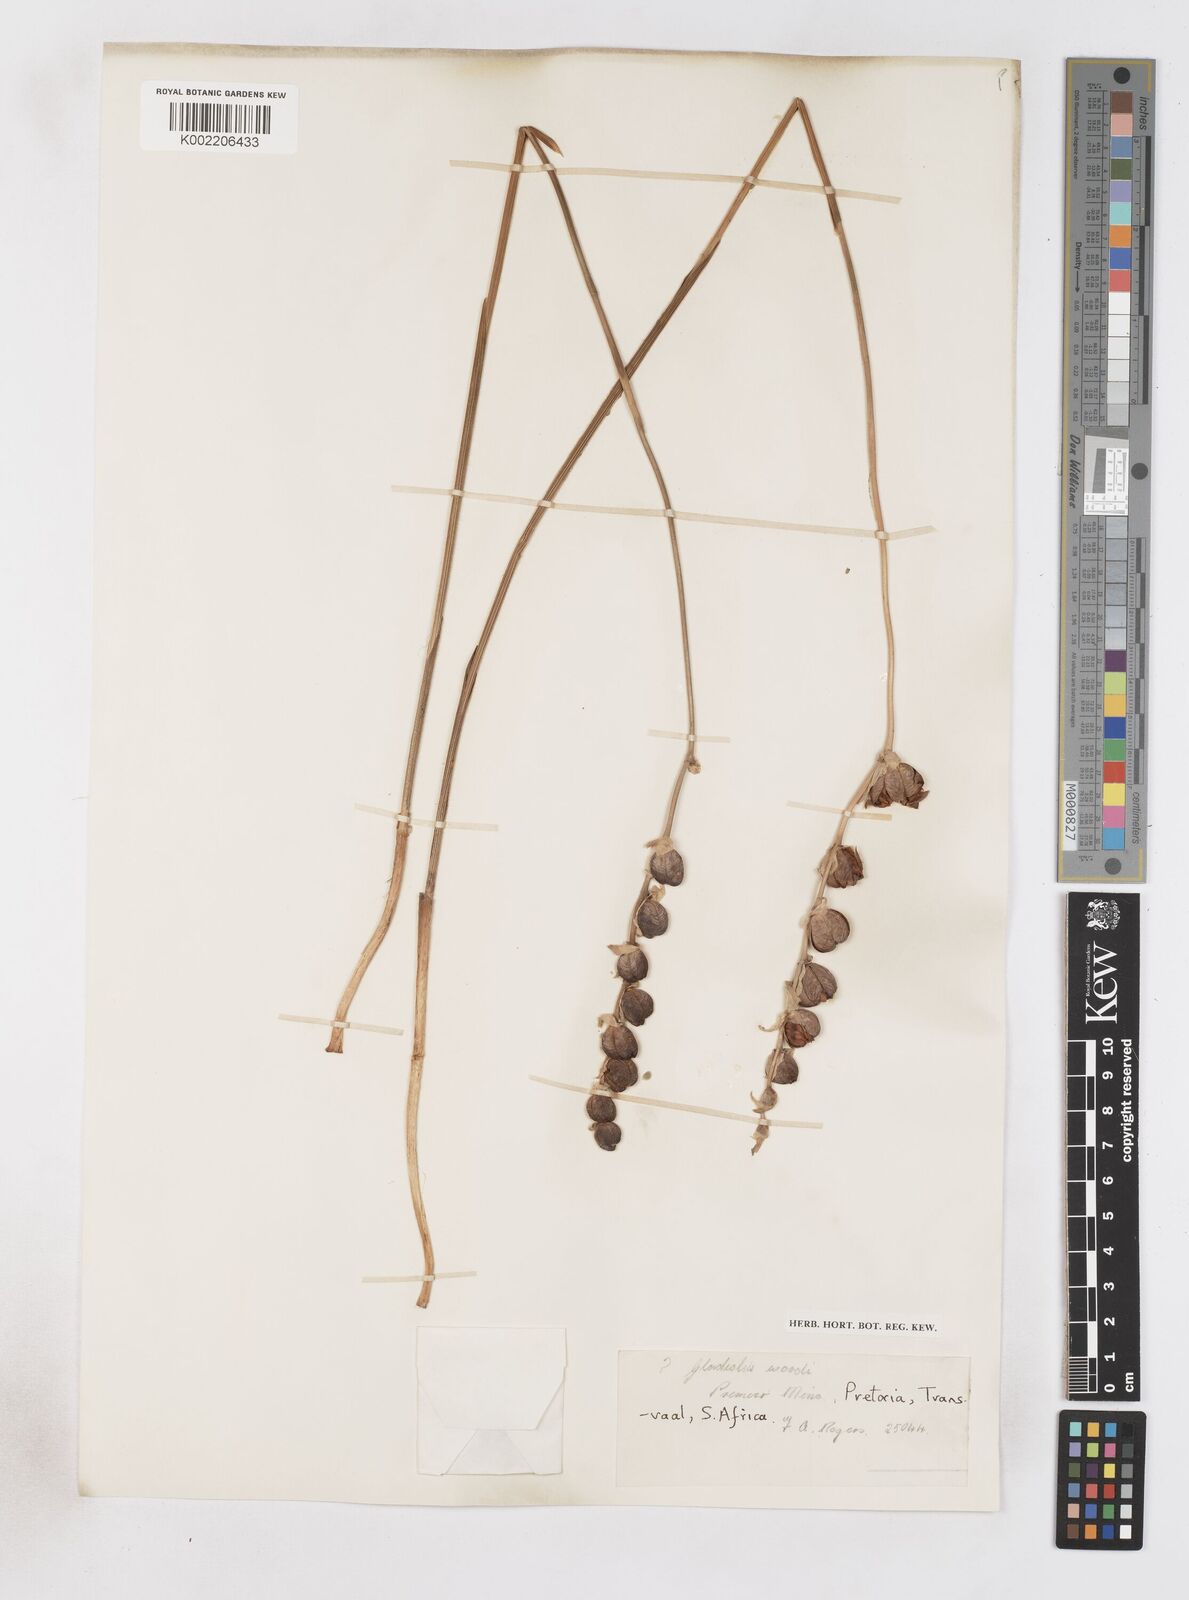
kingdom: Plantae
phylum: Tracheophyta
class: Liliopsida
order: Asparagales
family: Iridaceae
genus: Gladiolus
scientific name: Gladiolus woodii
